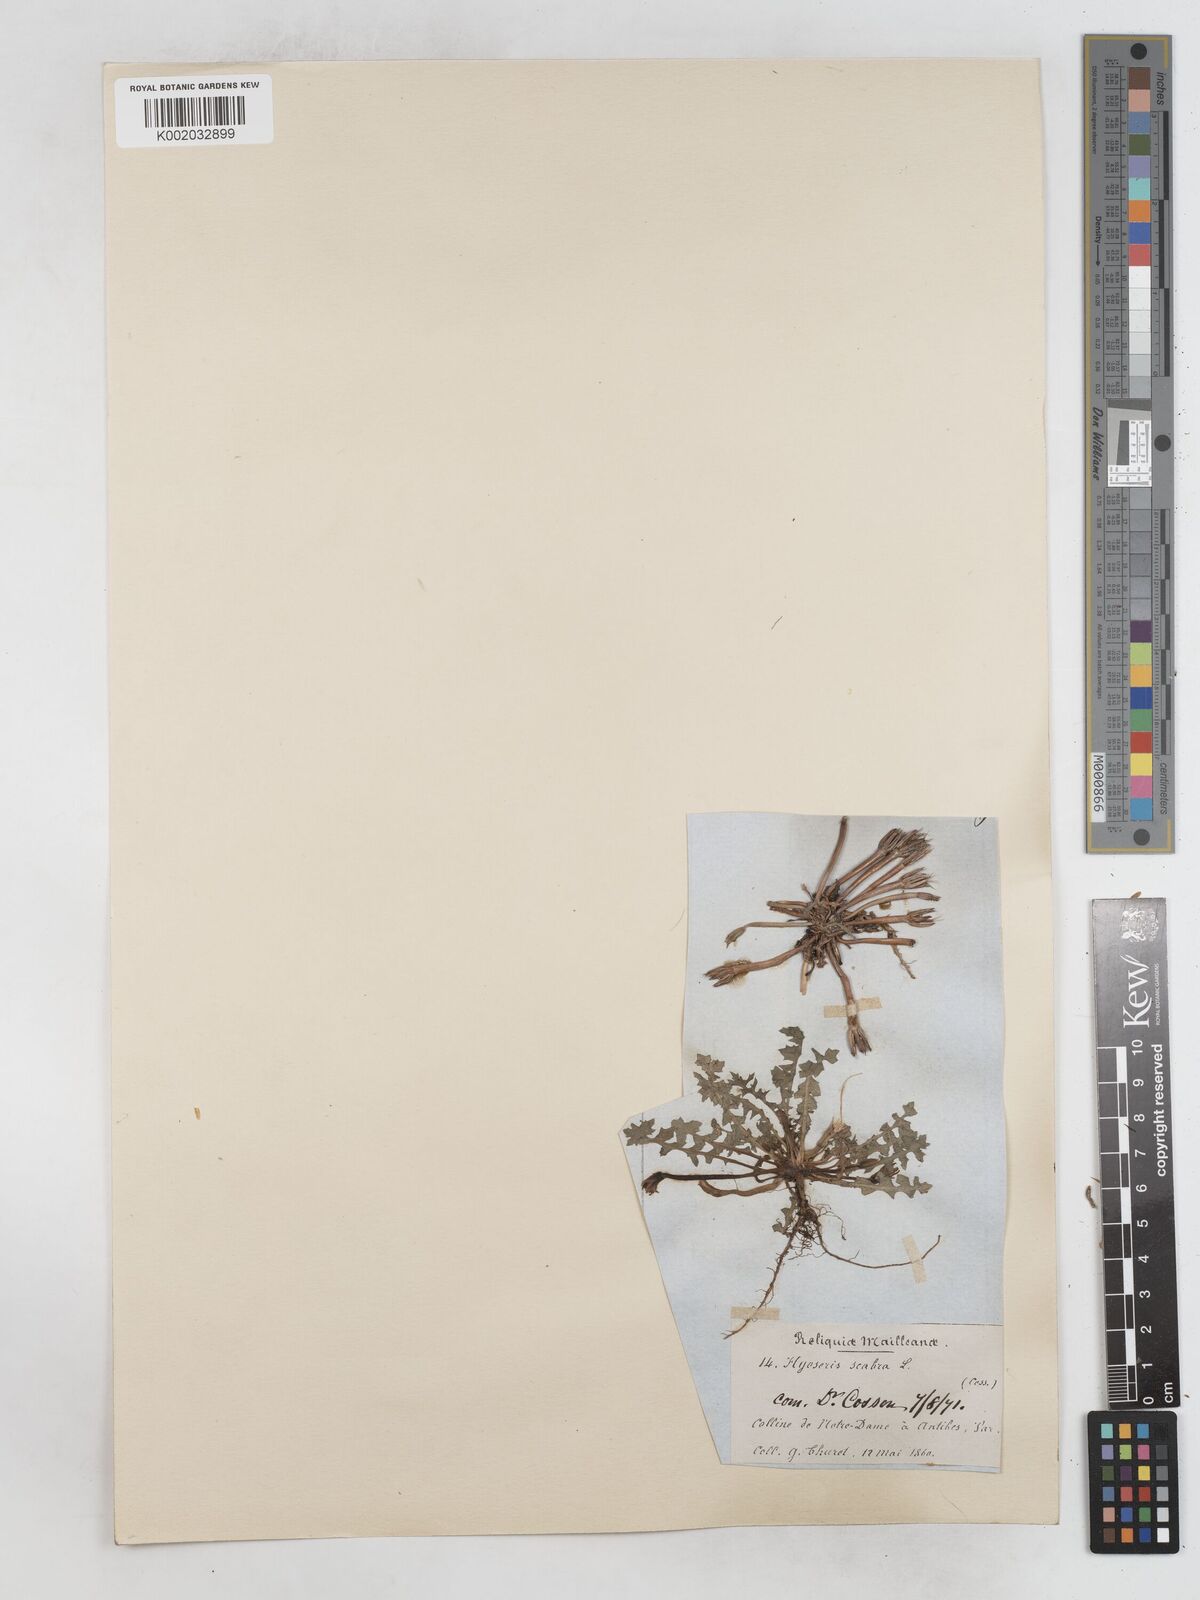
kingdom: Plantae
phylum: Tracheophyta
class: Magnoliopsida
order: Asterales
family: Asteraceae
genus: Hyoseris
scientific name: Hyoseris scabra
